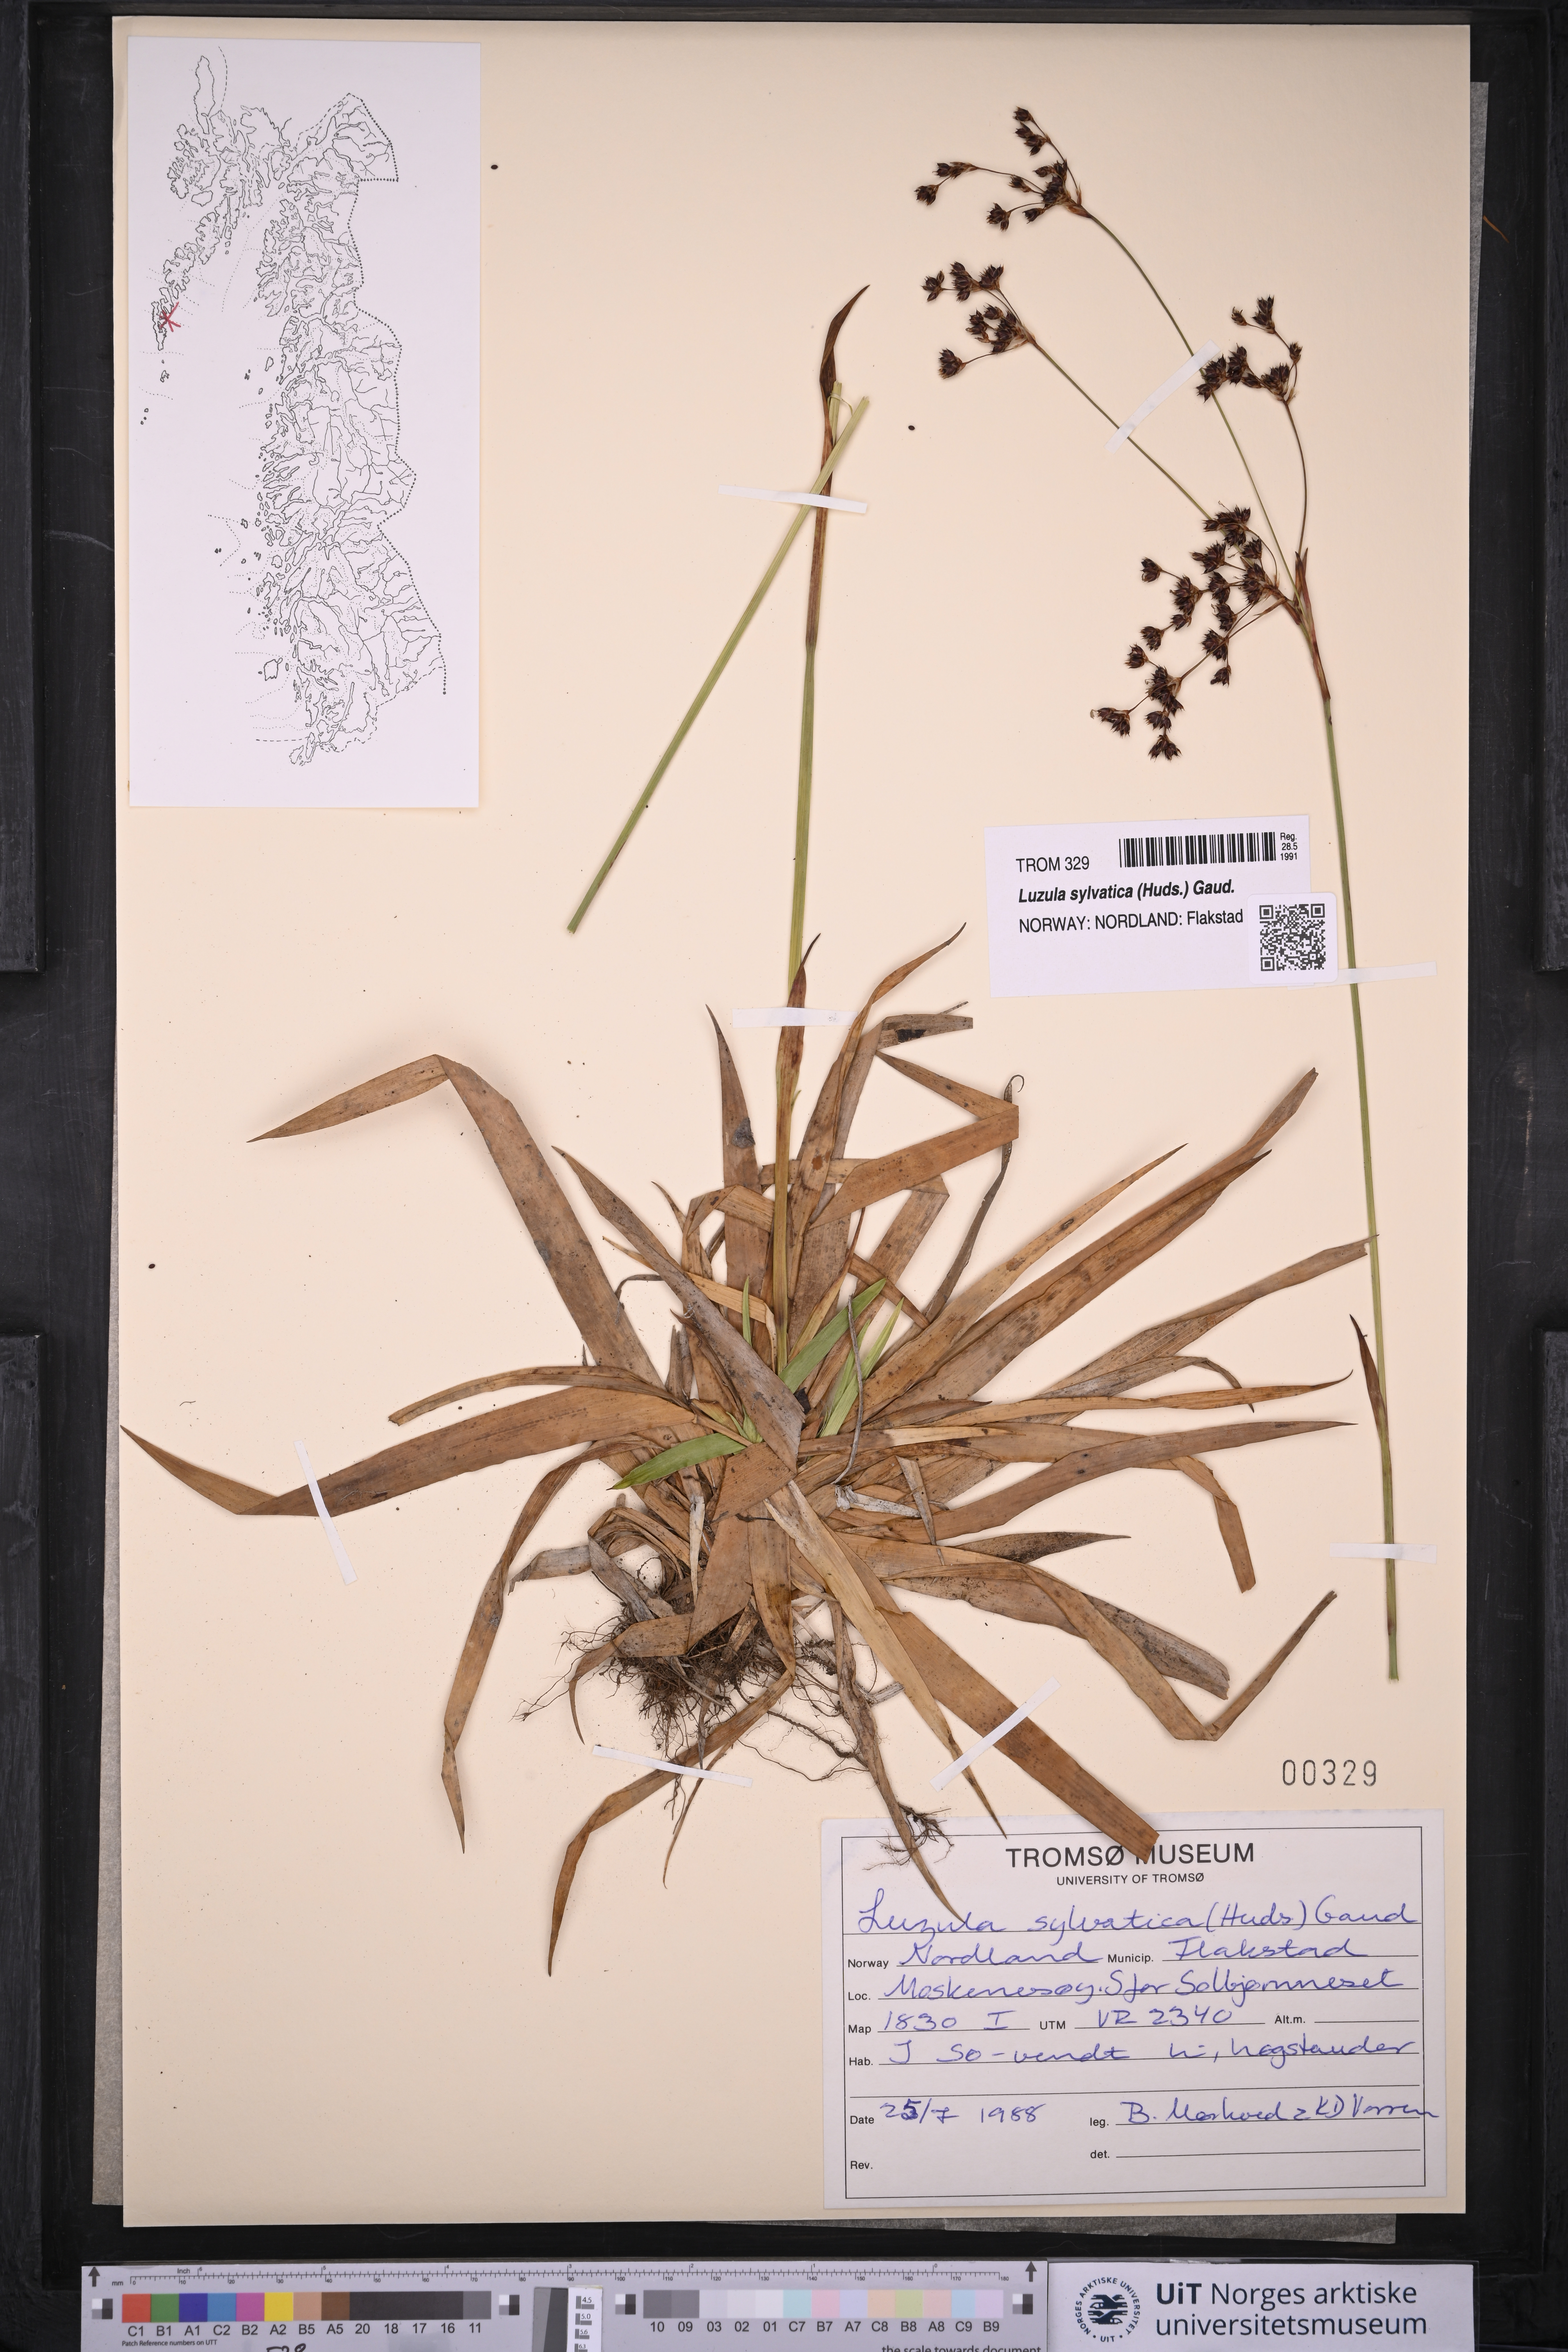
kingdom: Plantae
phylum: Tracheophyta
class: Liliopsida
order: Poales
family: Juncaceae
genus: Luzula
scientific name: Luzula sylvatica
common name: Great wood-rush
